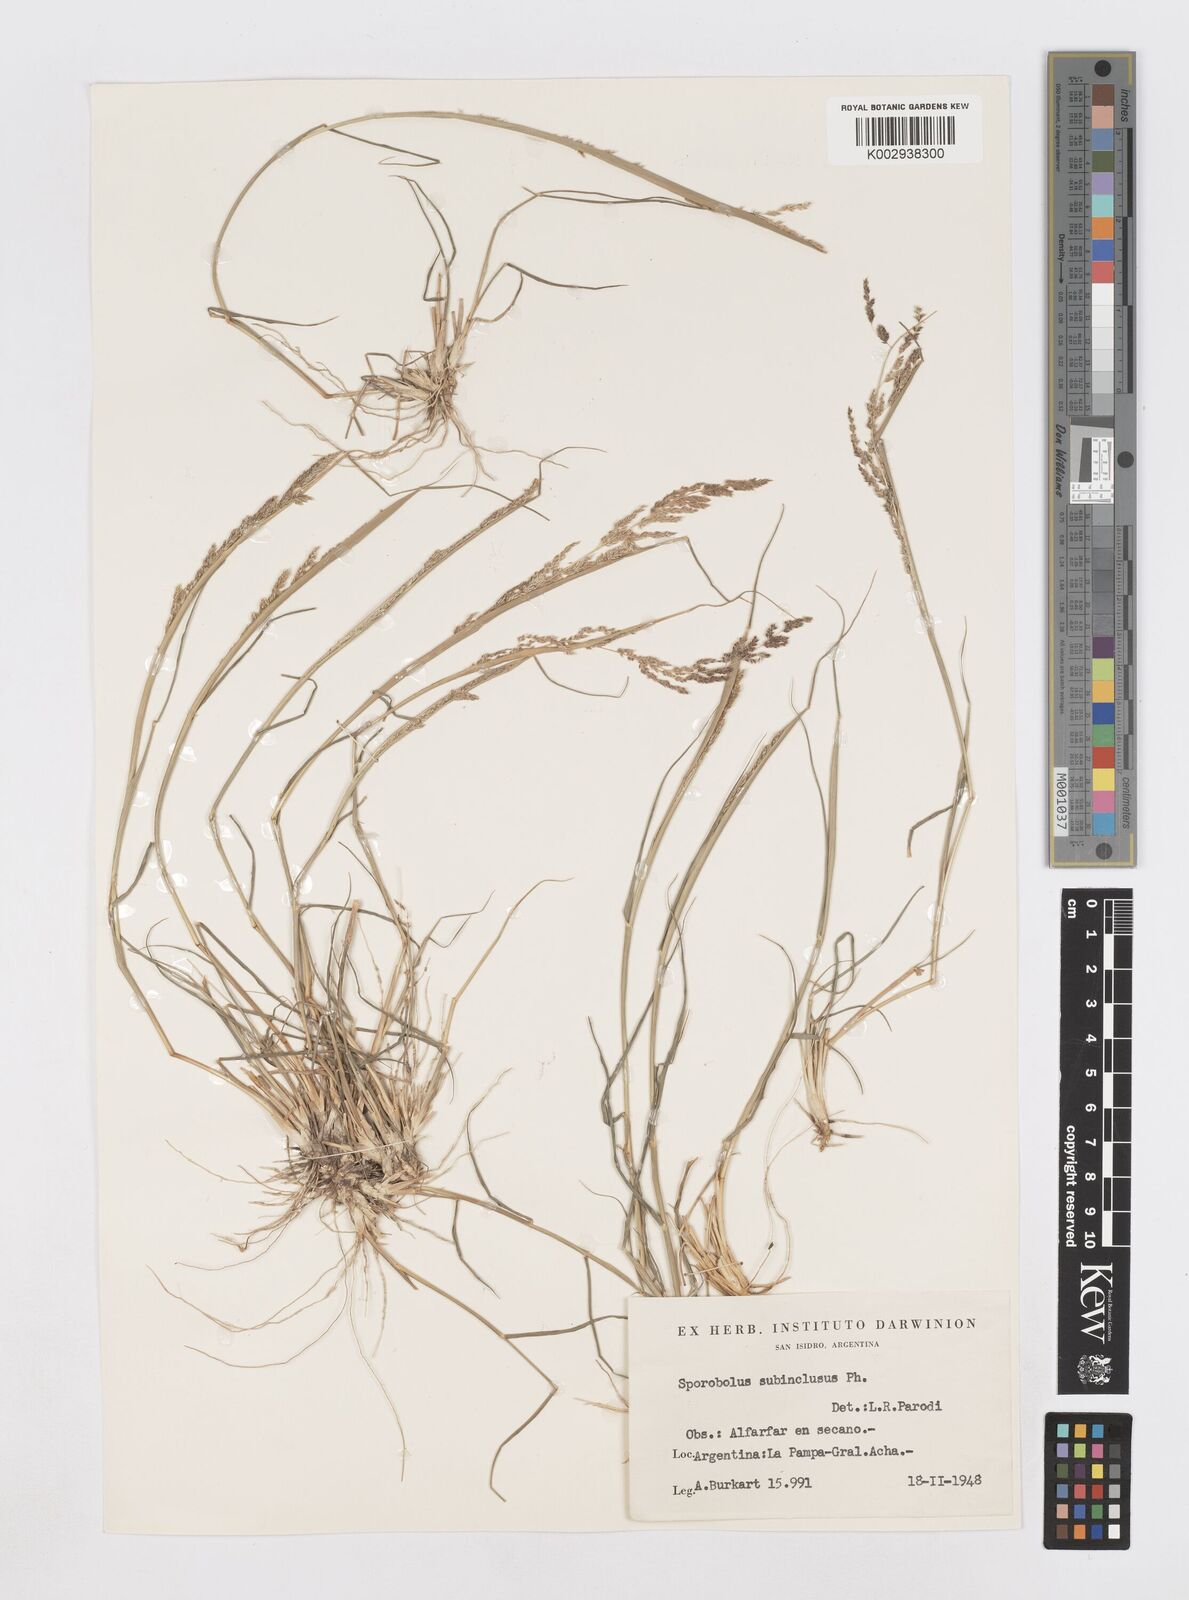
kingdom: Plantae
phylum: Tracheophyta
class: Liliopsida
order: Poales
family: Poaceae
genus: Sporobolus
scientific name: Sporobolus cryptandrus
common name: Sand dropseed
